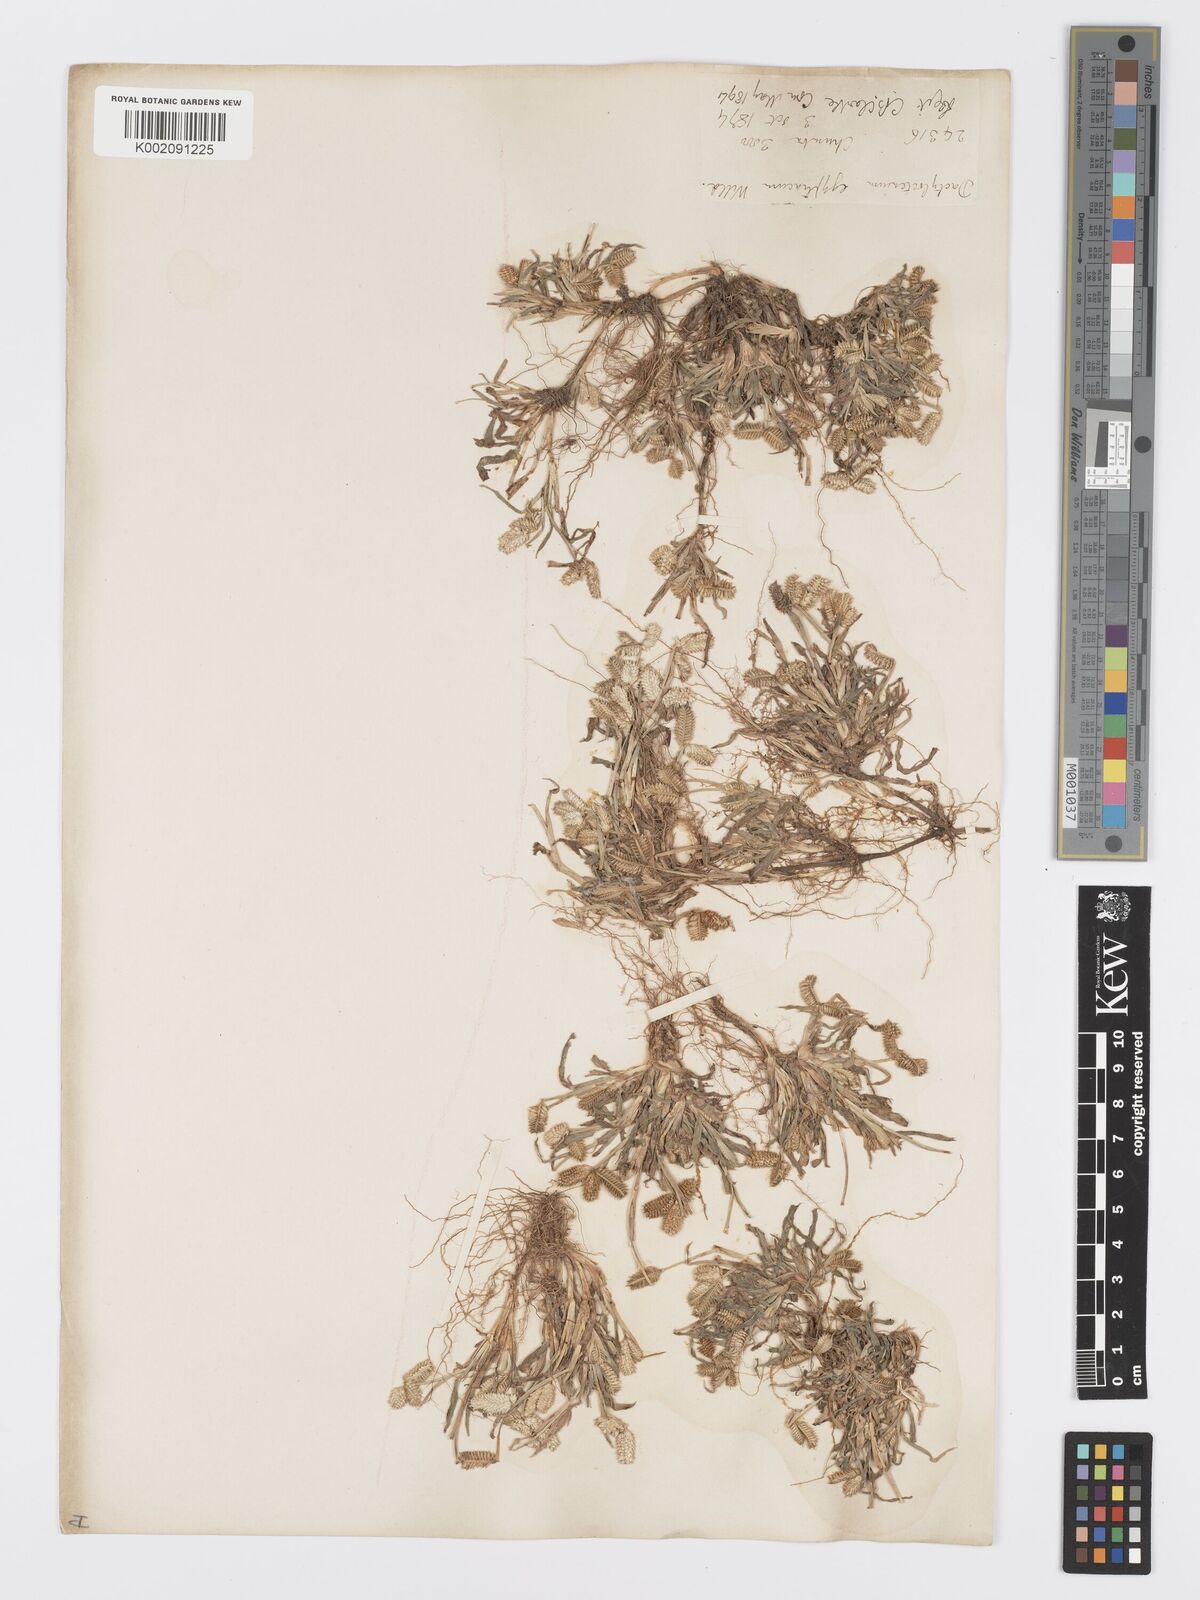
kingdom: Plantae
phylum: Tracheophyta
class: Liliopsida
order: Poales
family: Poaceae
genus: Dactyloctenium
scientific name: Dactyloctenium aegyptium
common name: Egyptian grass
